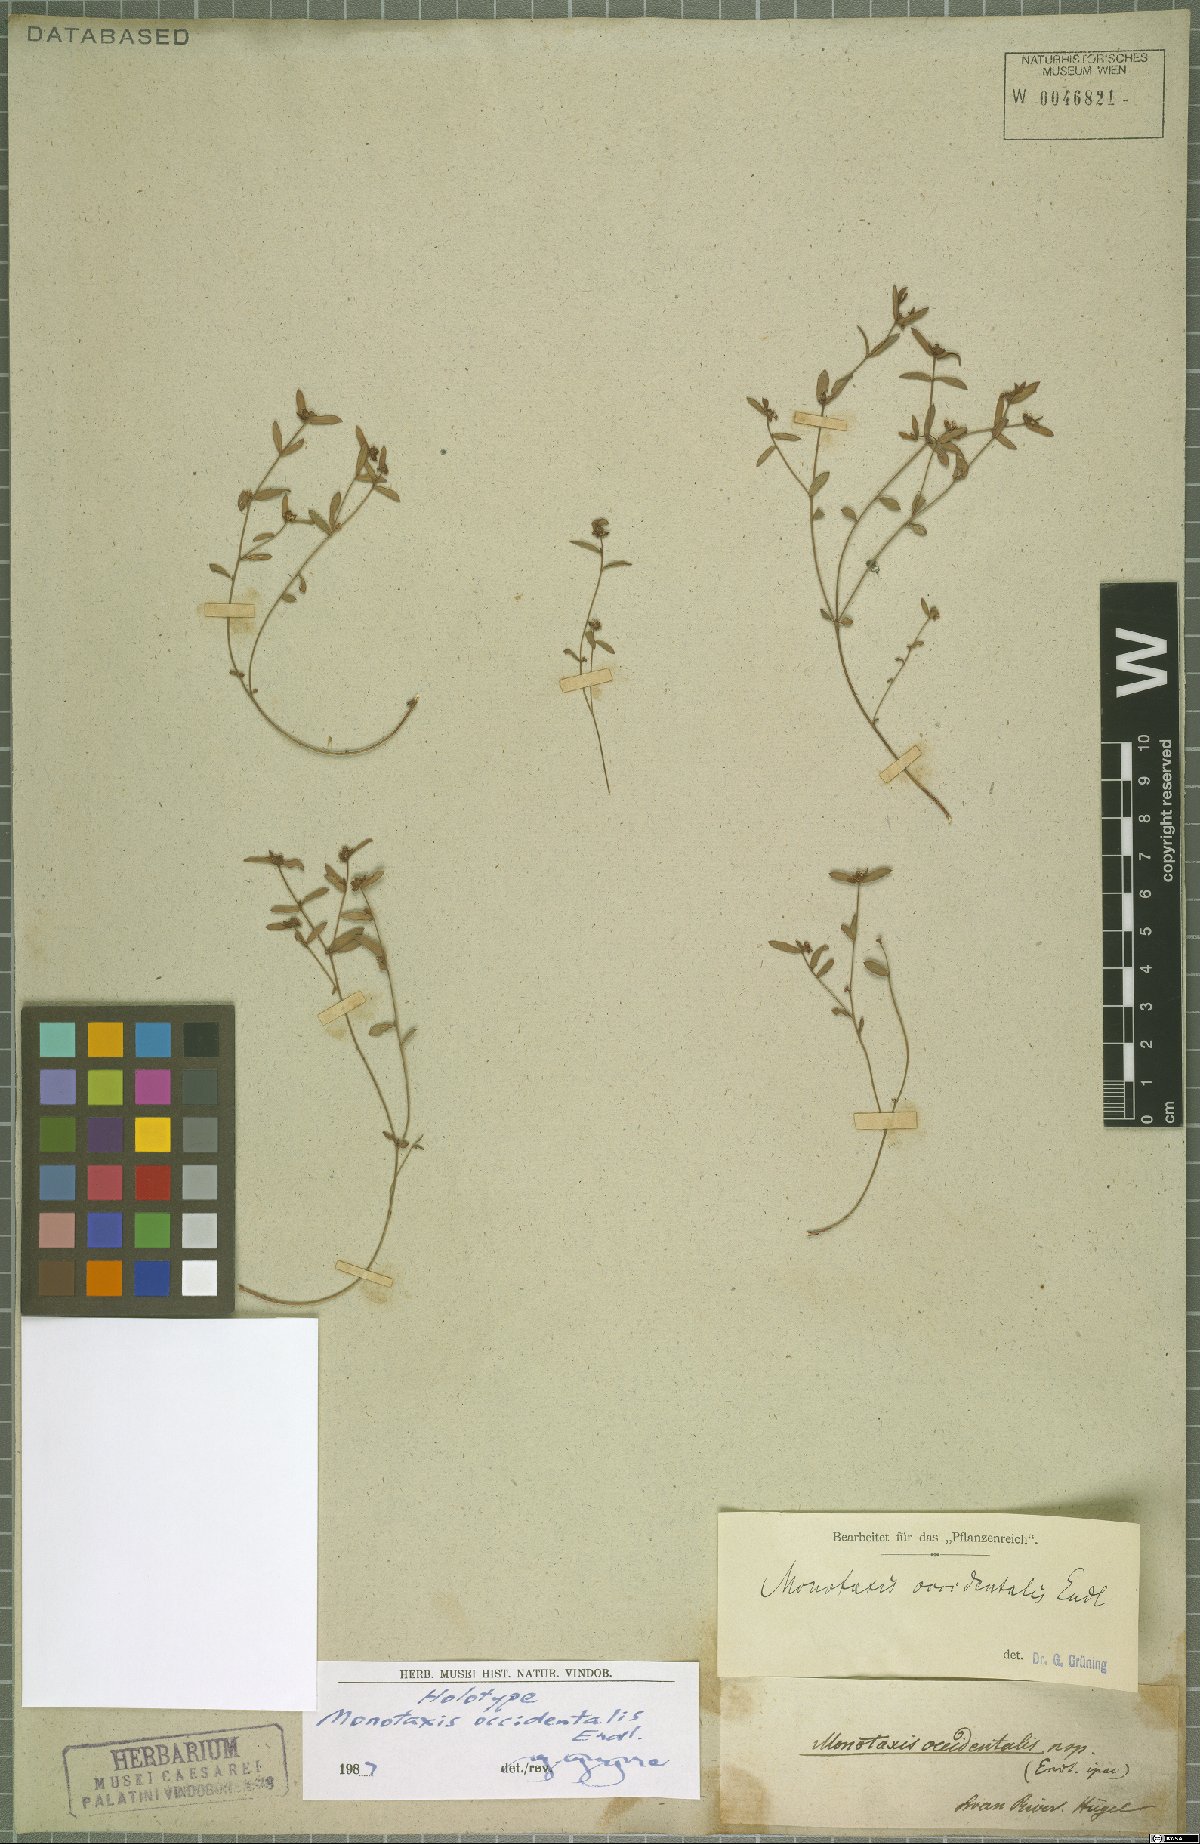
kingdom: Plantae
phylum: Tracheophyta
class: Magnoliopsida
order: Malpighiales
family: Euphorbiaceae
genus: Monotaxis
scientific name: Monotaxis occidentalis
